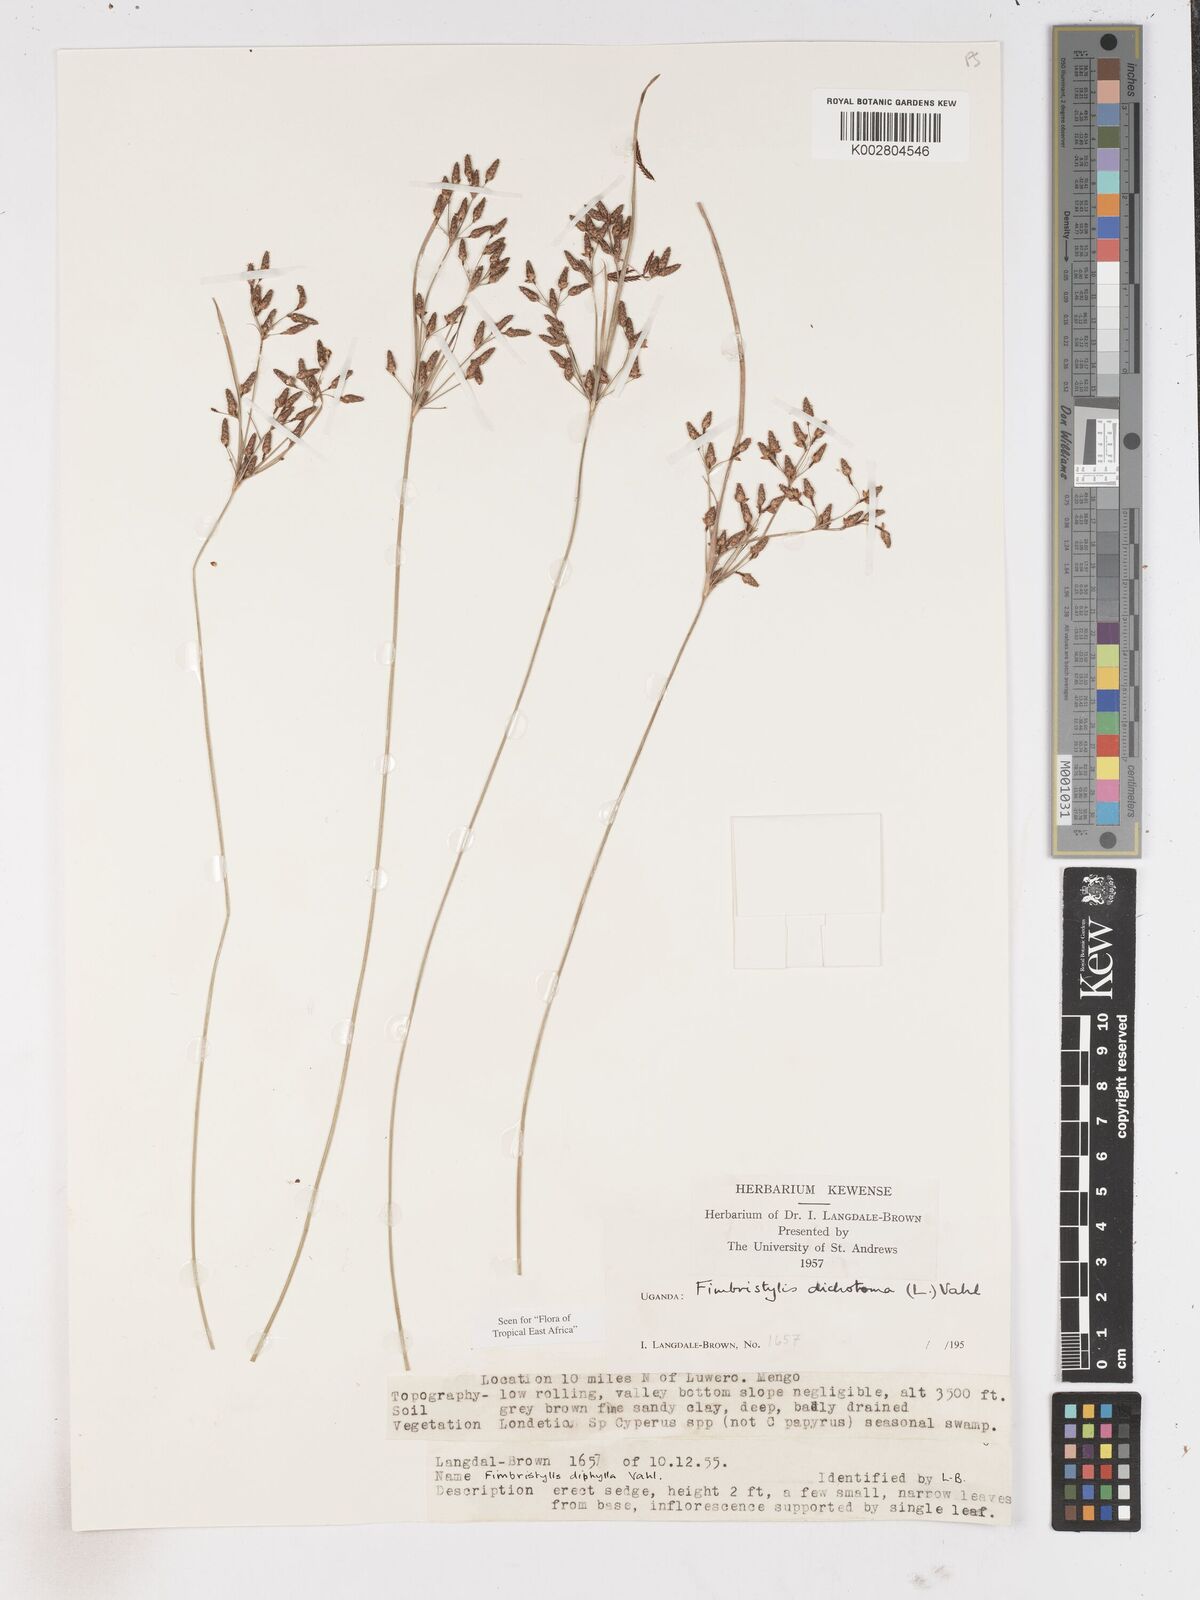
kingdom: Plantae
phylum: Tracheophyta
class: Liliopsida
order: Poales
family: Cyperaceae
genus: Fimbristylis
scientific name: Fimbristylis dichotoma
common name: Forked fimbry
